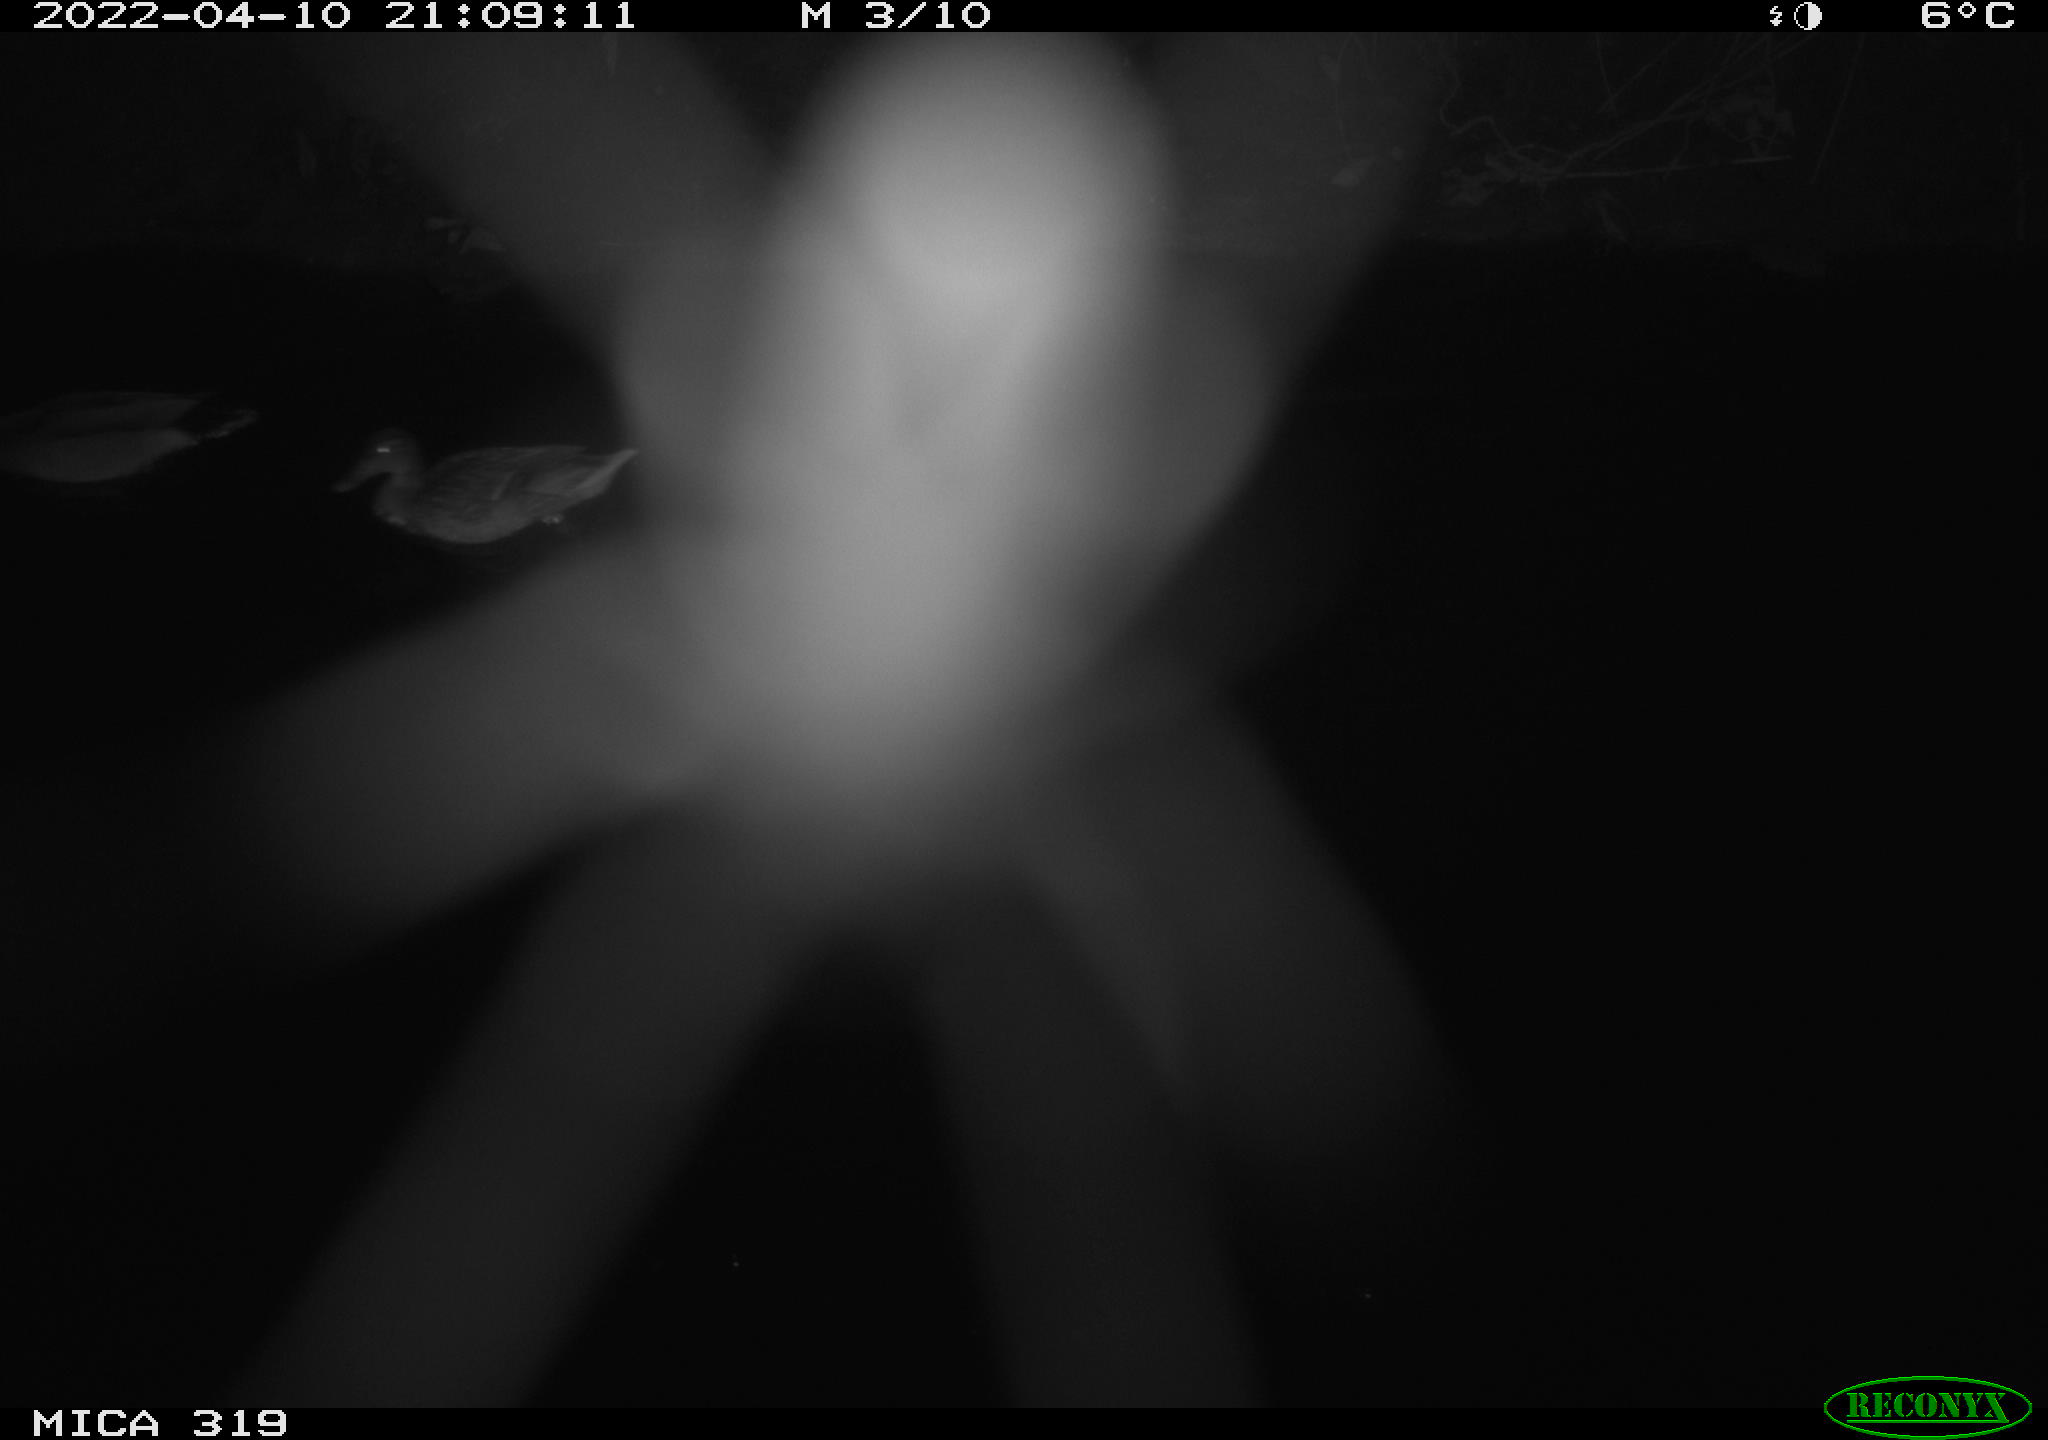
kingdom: Animalia
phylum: Chordata
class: Aves
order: Anseriformes
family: Anatidae
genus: Anas
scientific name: Anas platyrhynchos
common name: Mallard
